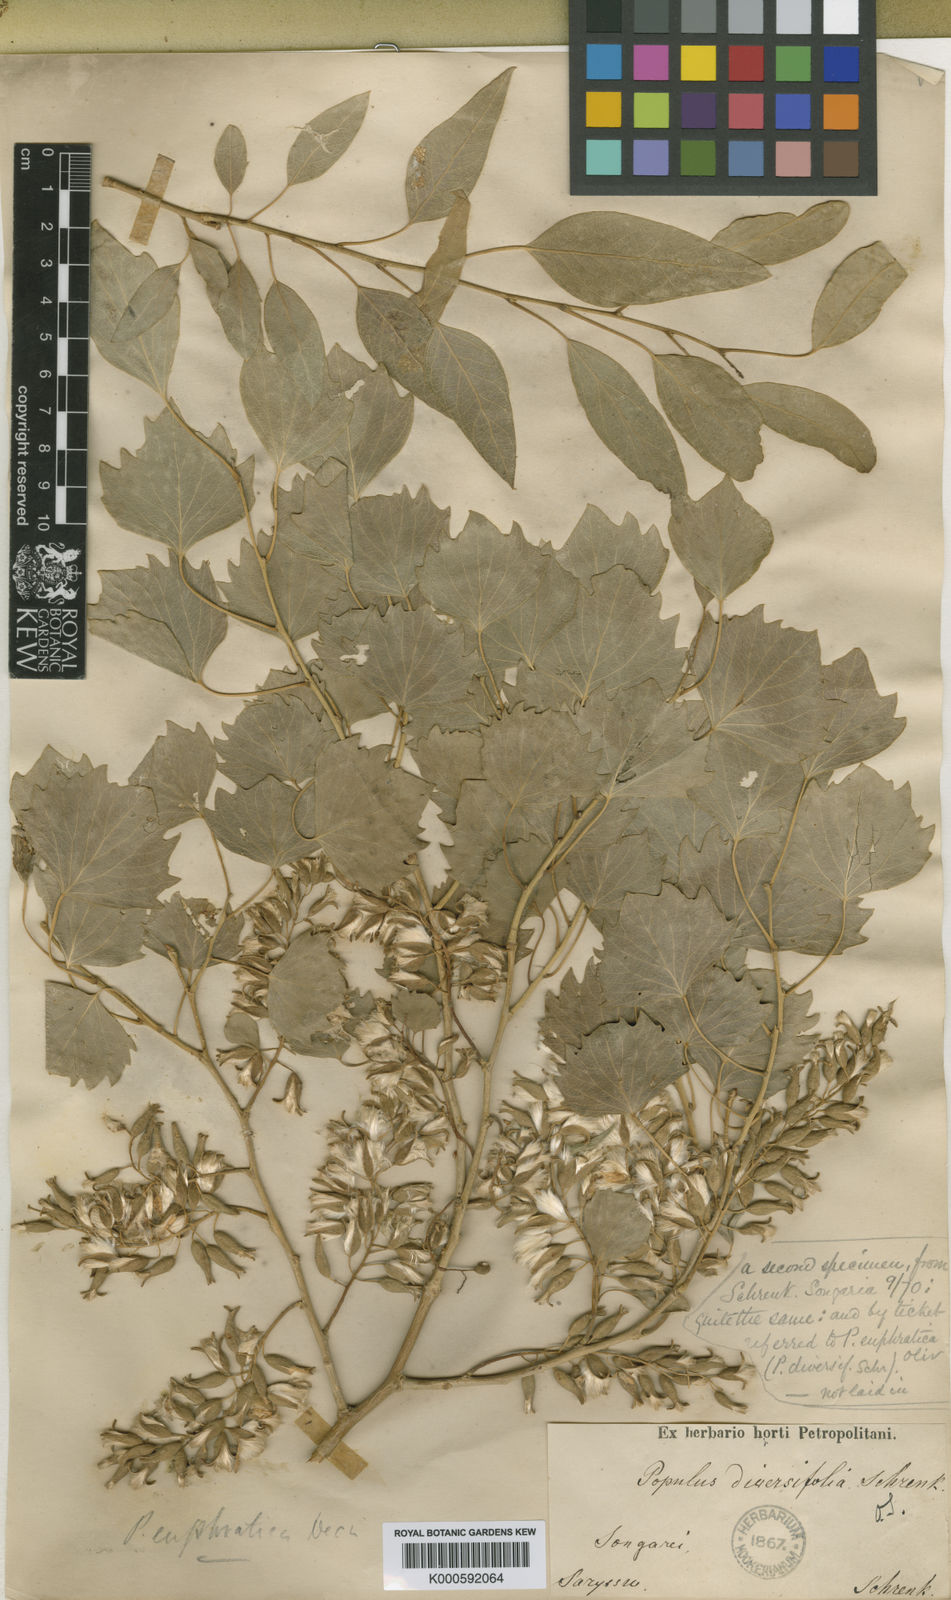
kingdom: Plantae
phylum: Tracheophyta
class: Magnoliopsida
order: Malpighiales
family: Salicaceae
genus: Populus
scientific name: Populus euphratica
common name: Euphrates poplar
